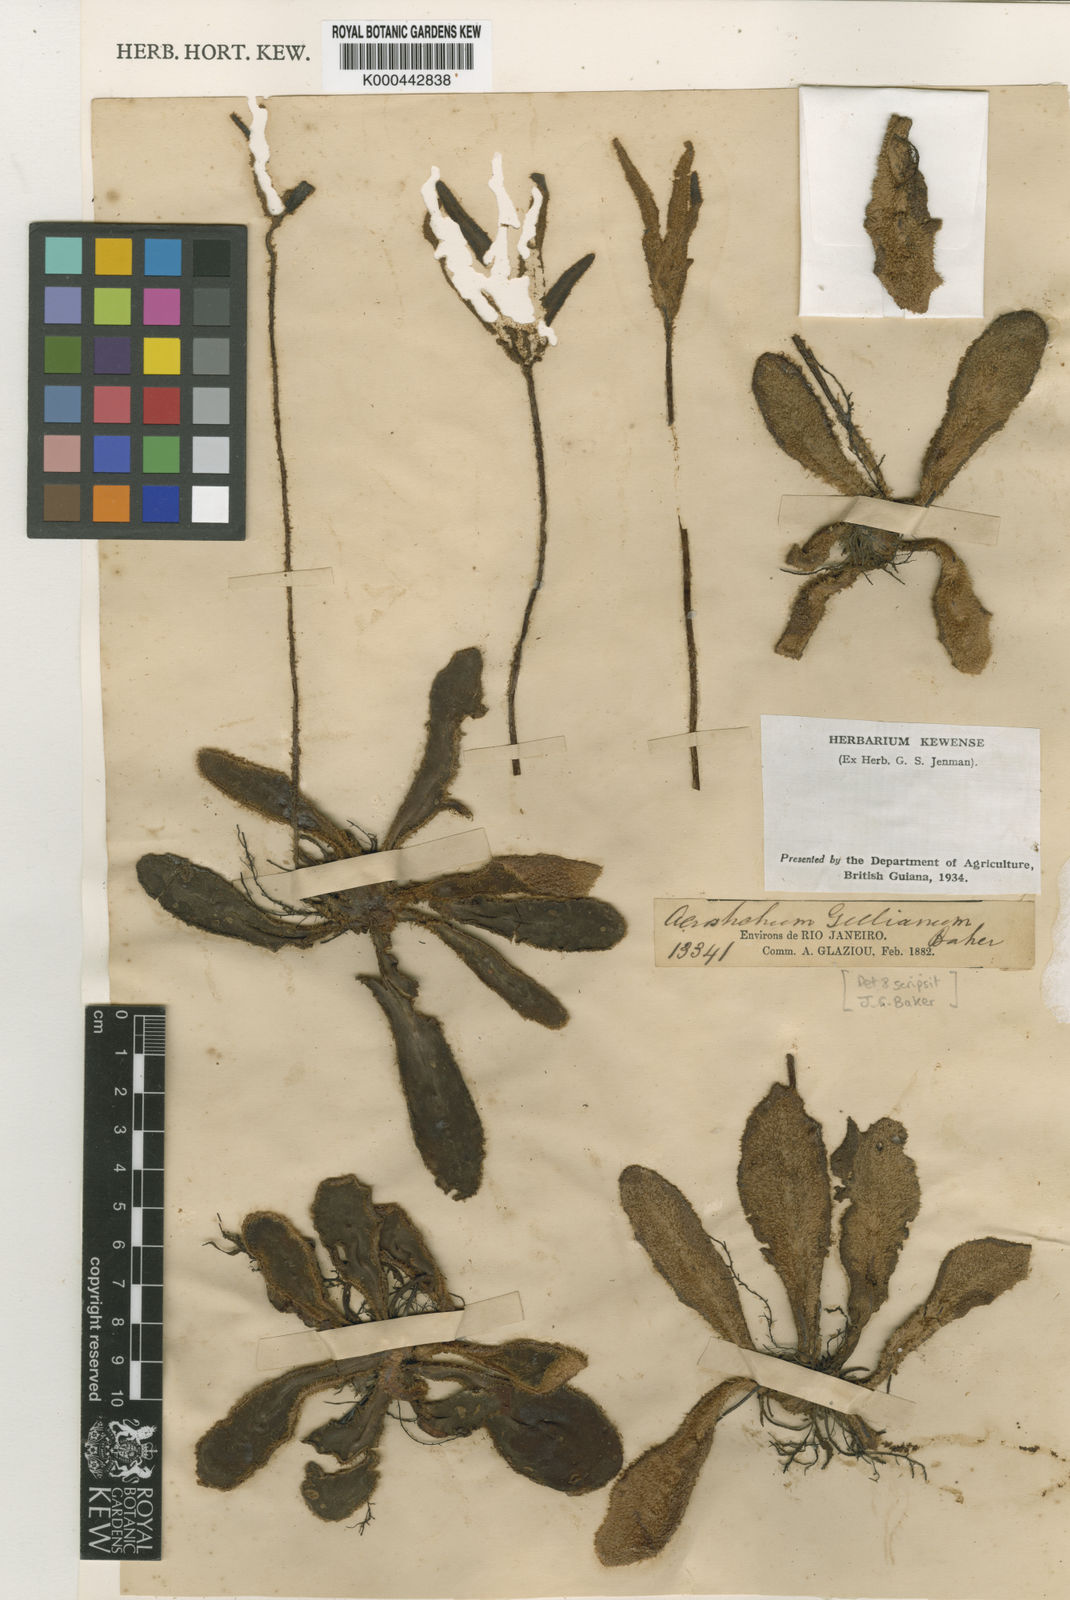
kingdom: Plantae
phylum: Tracheophyta
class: Polypodiopsida
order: Polypodiales
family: Pteridaceae
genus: Trachypteris
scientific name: Trachypteris gilliana
